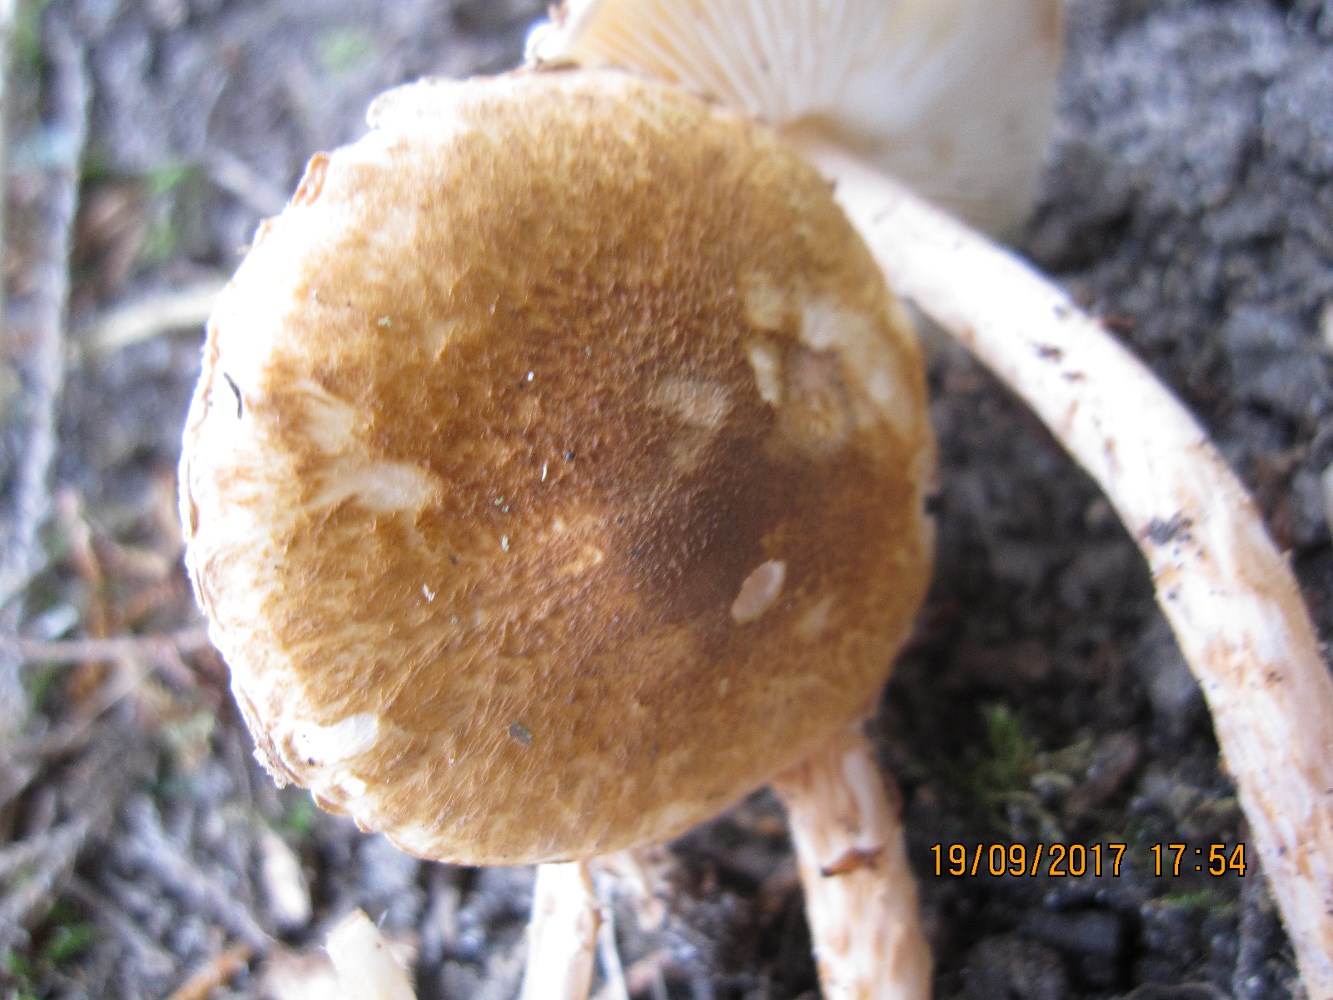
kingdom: Fungi
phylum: Basidiomycota
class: Agaricomycetes
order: Agaricales
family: Agaricaceae
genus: Leucocoprinus
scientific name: Leucocoprinus straminellus
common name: rustbrun parasolhat
